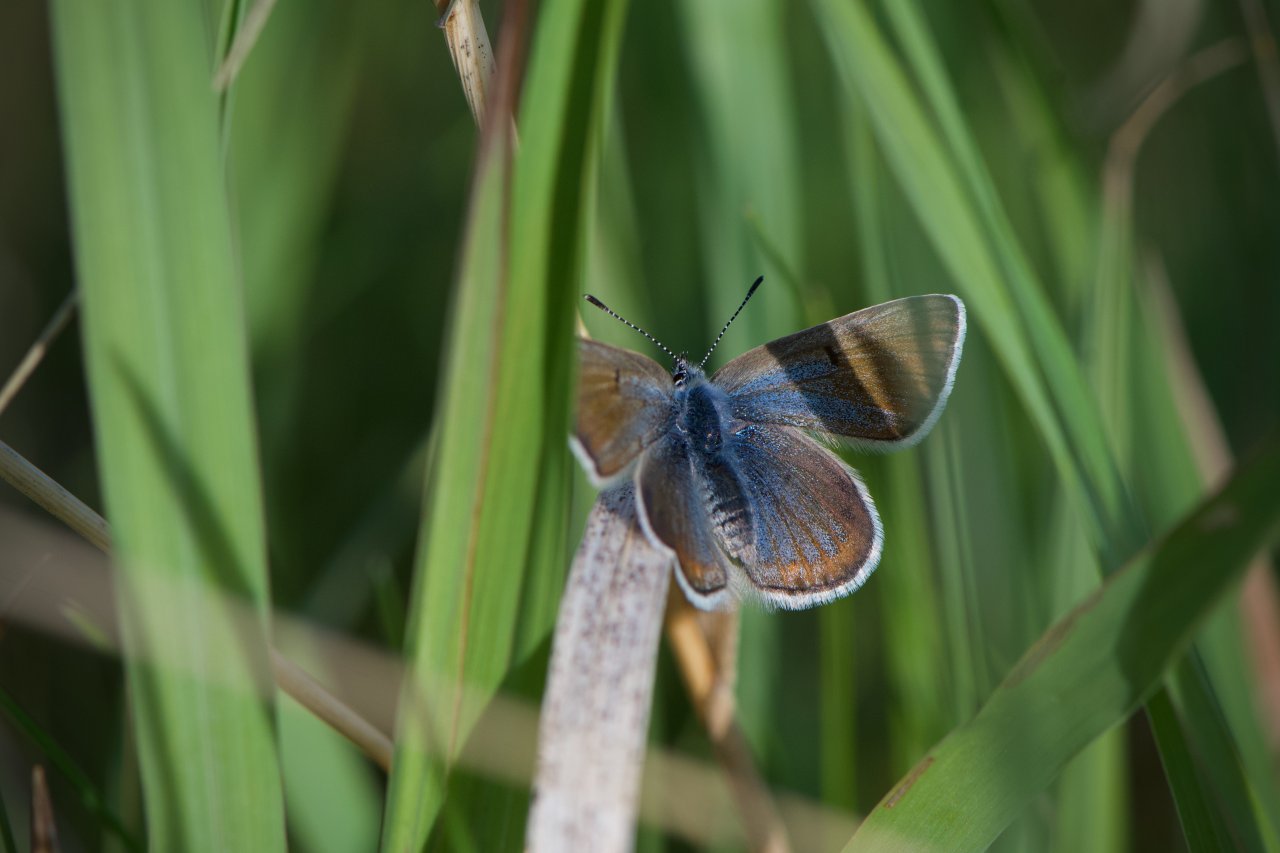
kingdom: Animalia
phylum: Arthropoda
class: Insecta
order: Lepidoptera
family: Lycaenidae
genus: Plebejus
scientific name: Plebejus saepiolus
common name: Greenish Blue
